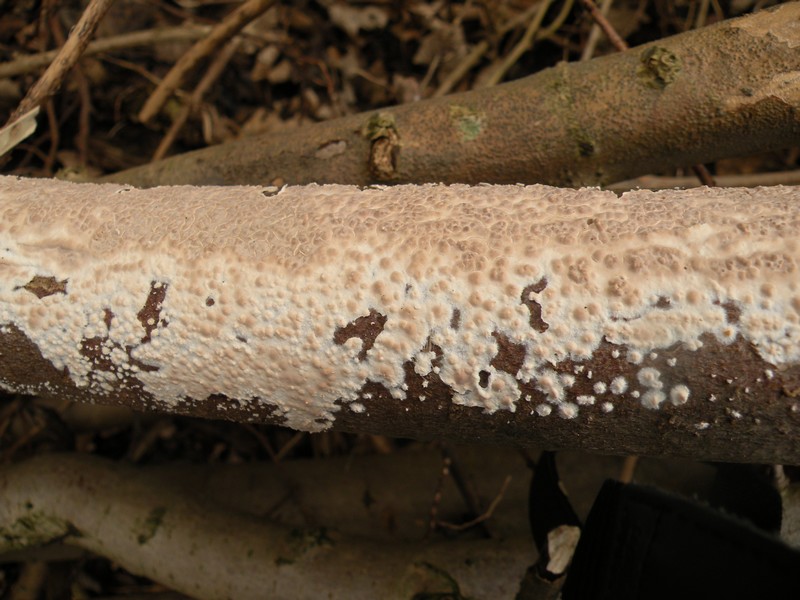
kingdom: Fungi
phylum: Basidiomycota
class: Agaricomycetes
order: Agaricales
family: Physalacriaceae
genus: Cylindrobasidium
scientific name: Cylindrobasidium evolvens
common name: sprækkehinde
